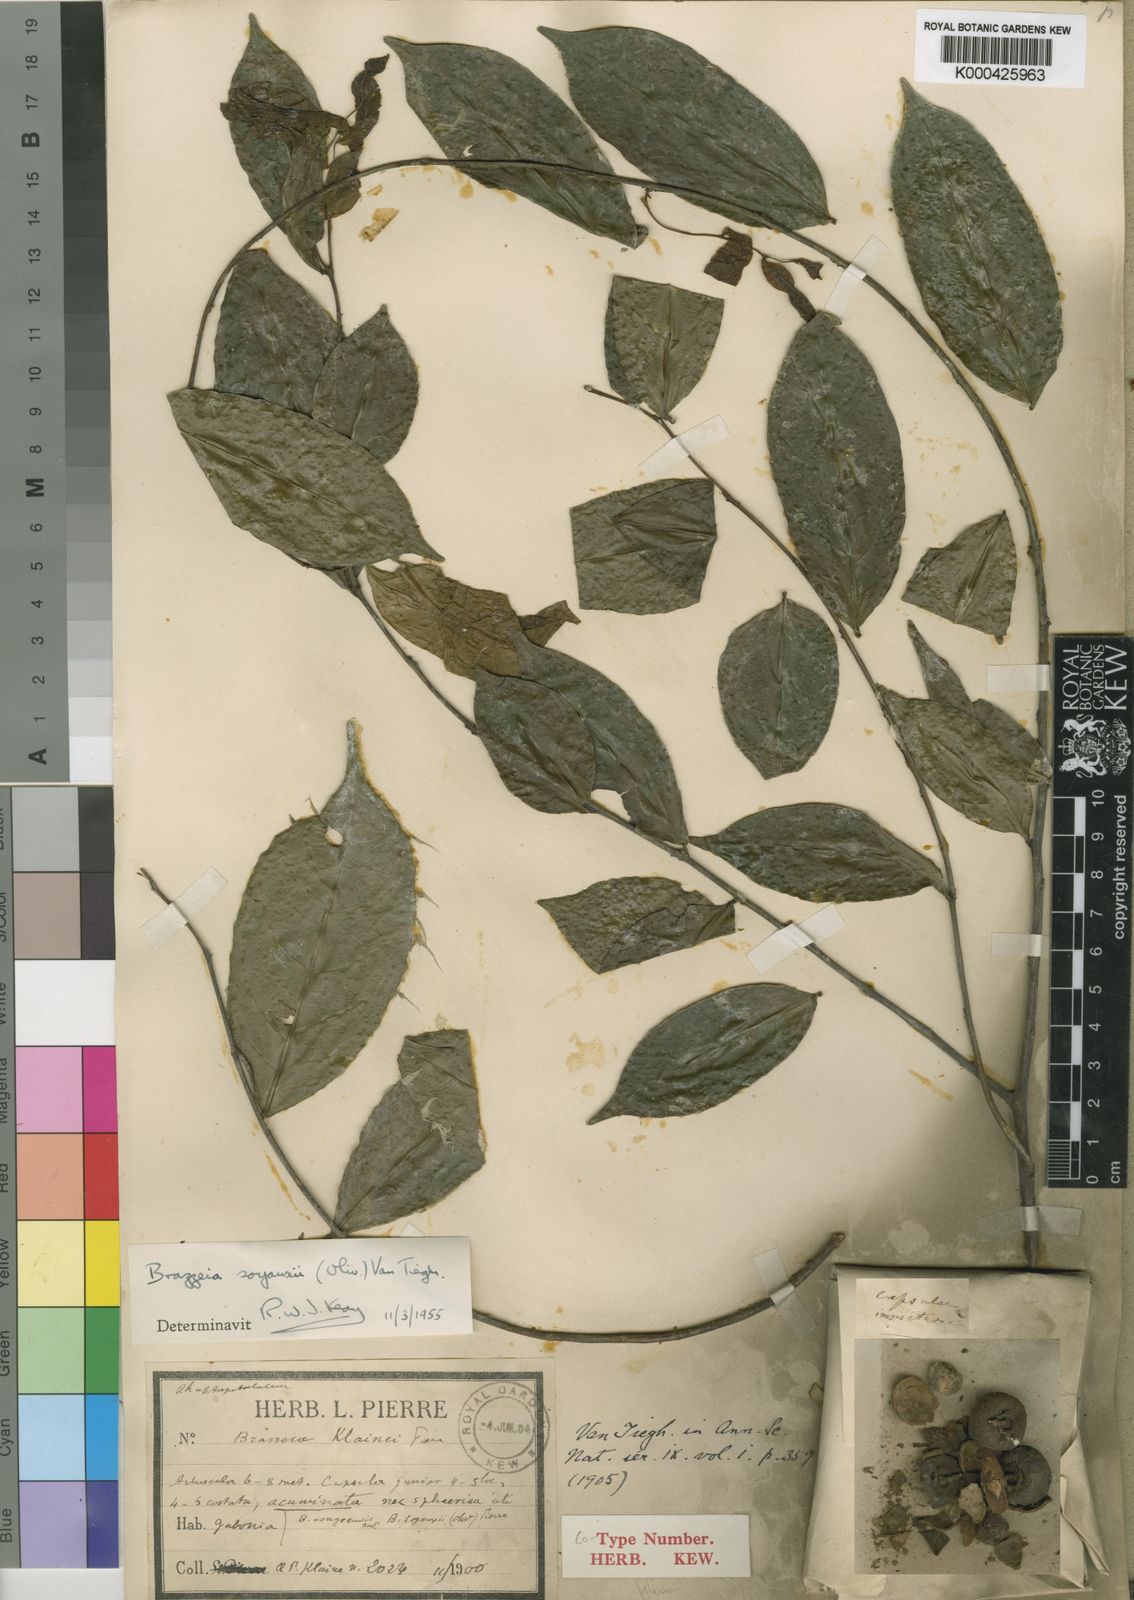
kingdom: Plantae
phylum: Tracheophyta
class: Magnoliopsida
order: Ericales
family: Lecythidaceae
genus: Brazzeia
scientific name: Brazzeia soyauxii
